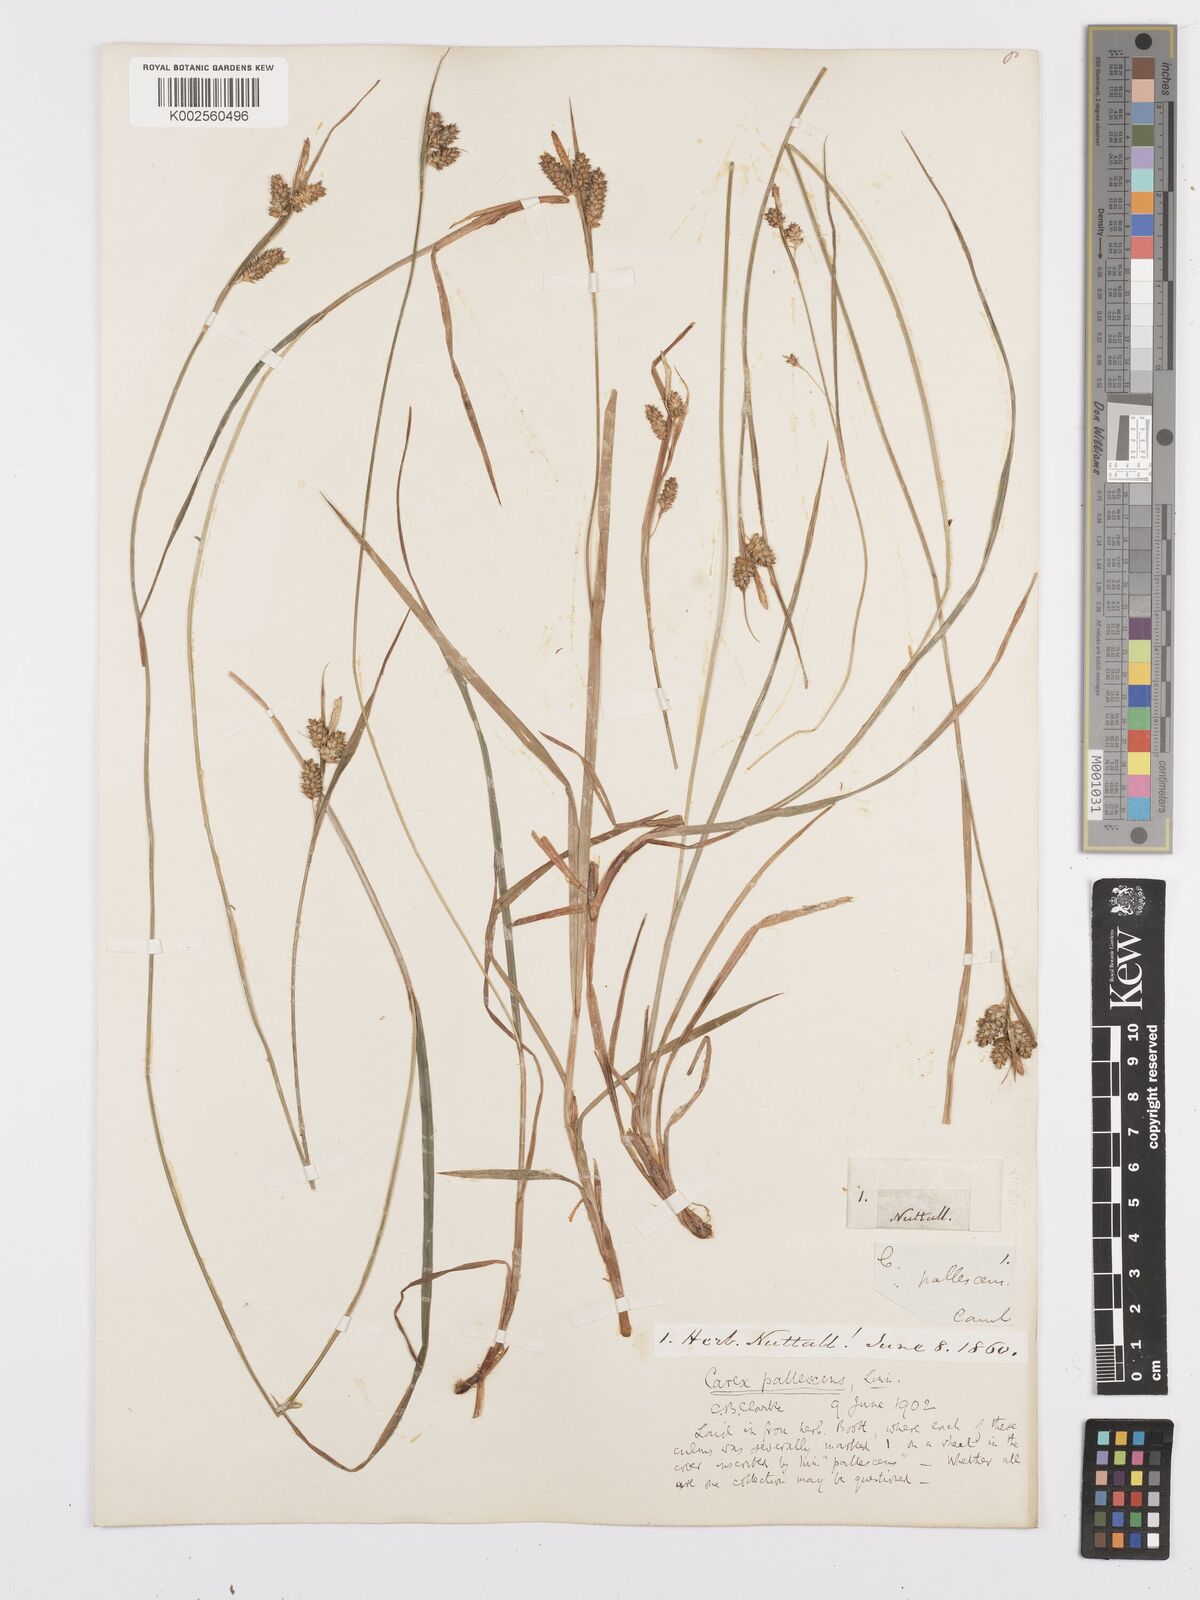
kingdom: Plantae
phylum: Tracheophyta
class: Liliopsida
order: Poales
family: Cyperaceae
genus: Carex
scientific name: Carex pallescens
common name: Pale sedge
